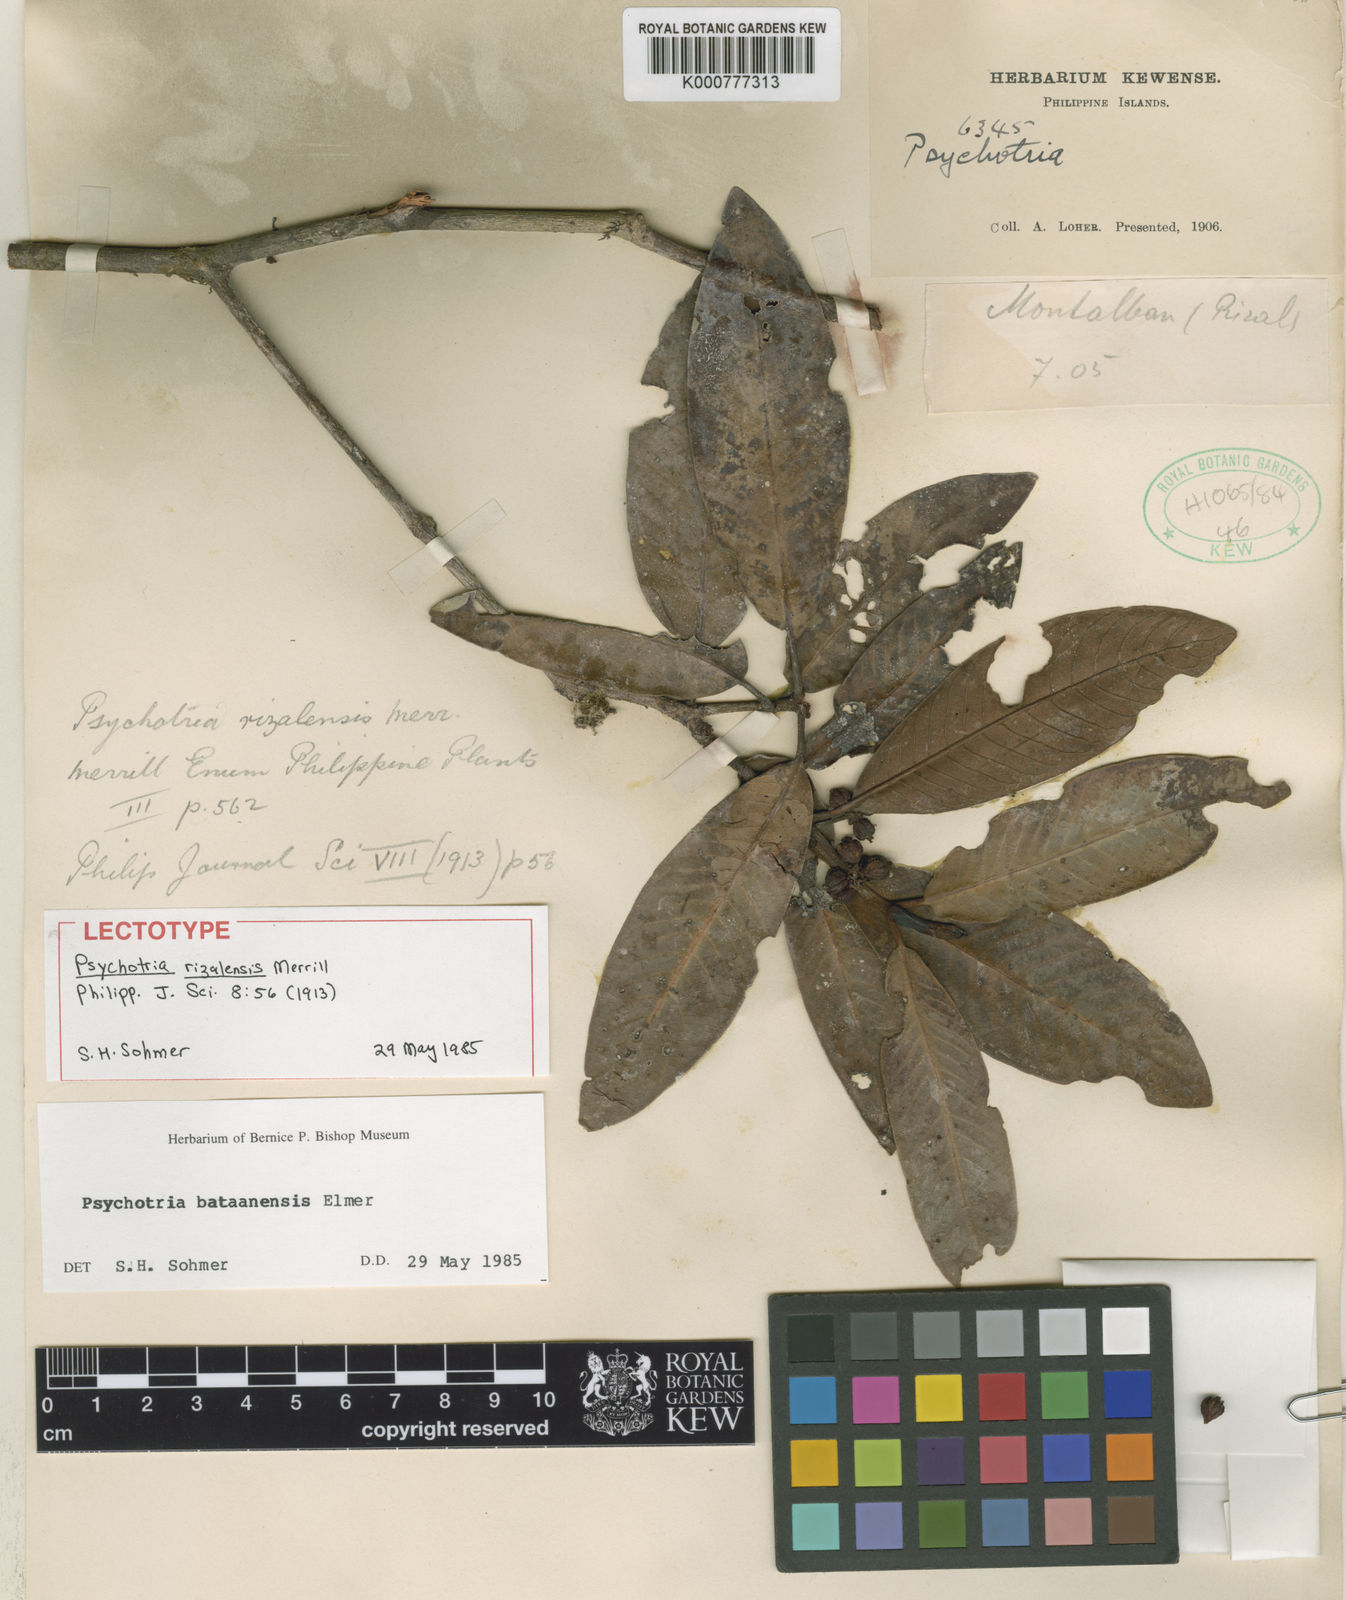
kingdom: Plantae
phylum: Tracheophyta
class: Magnoliopsida
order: Gentianales
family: Rubiaceae
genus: Psychotria
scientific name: Psychotria bataanensis
